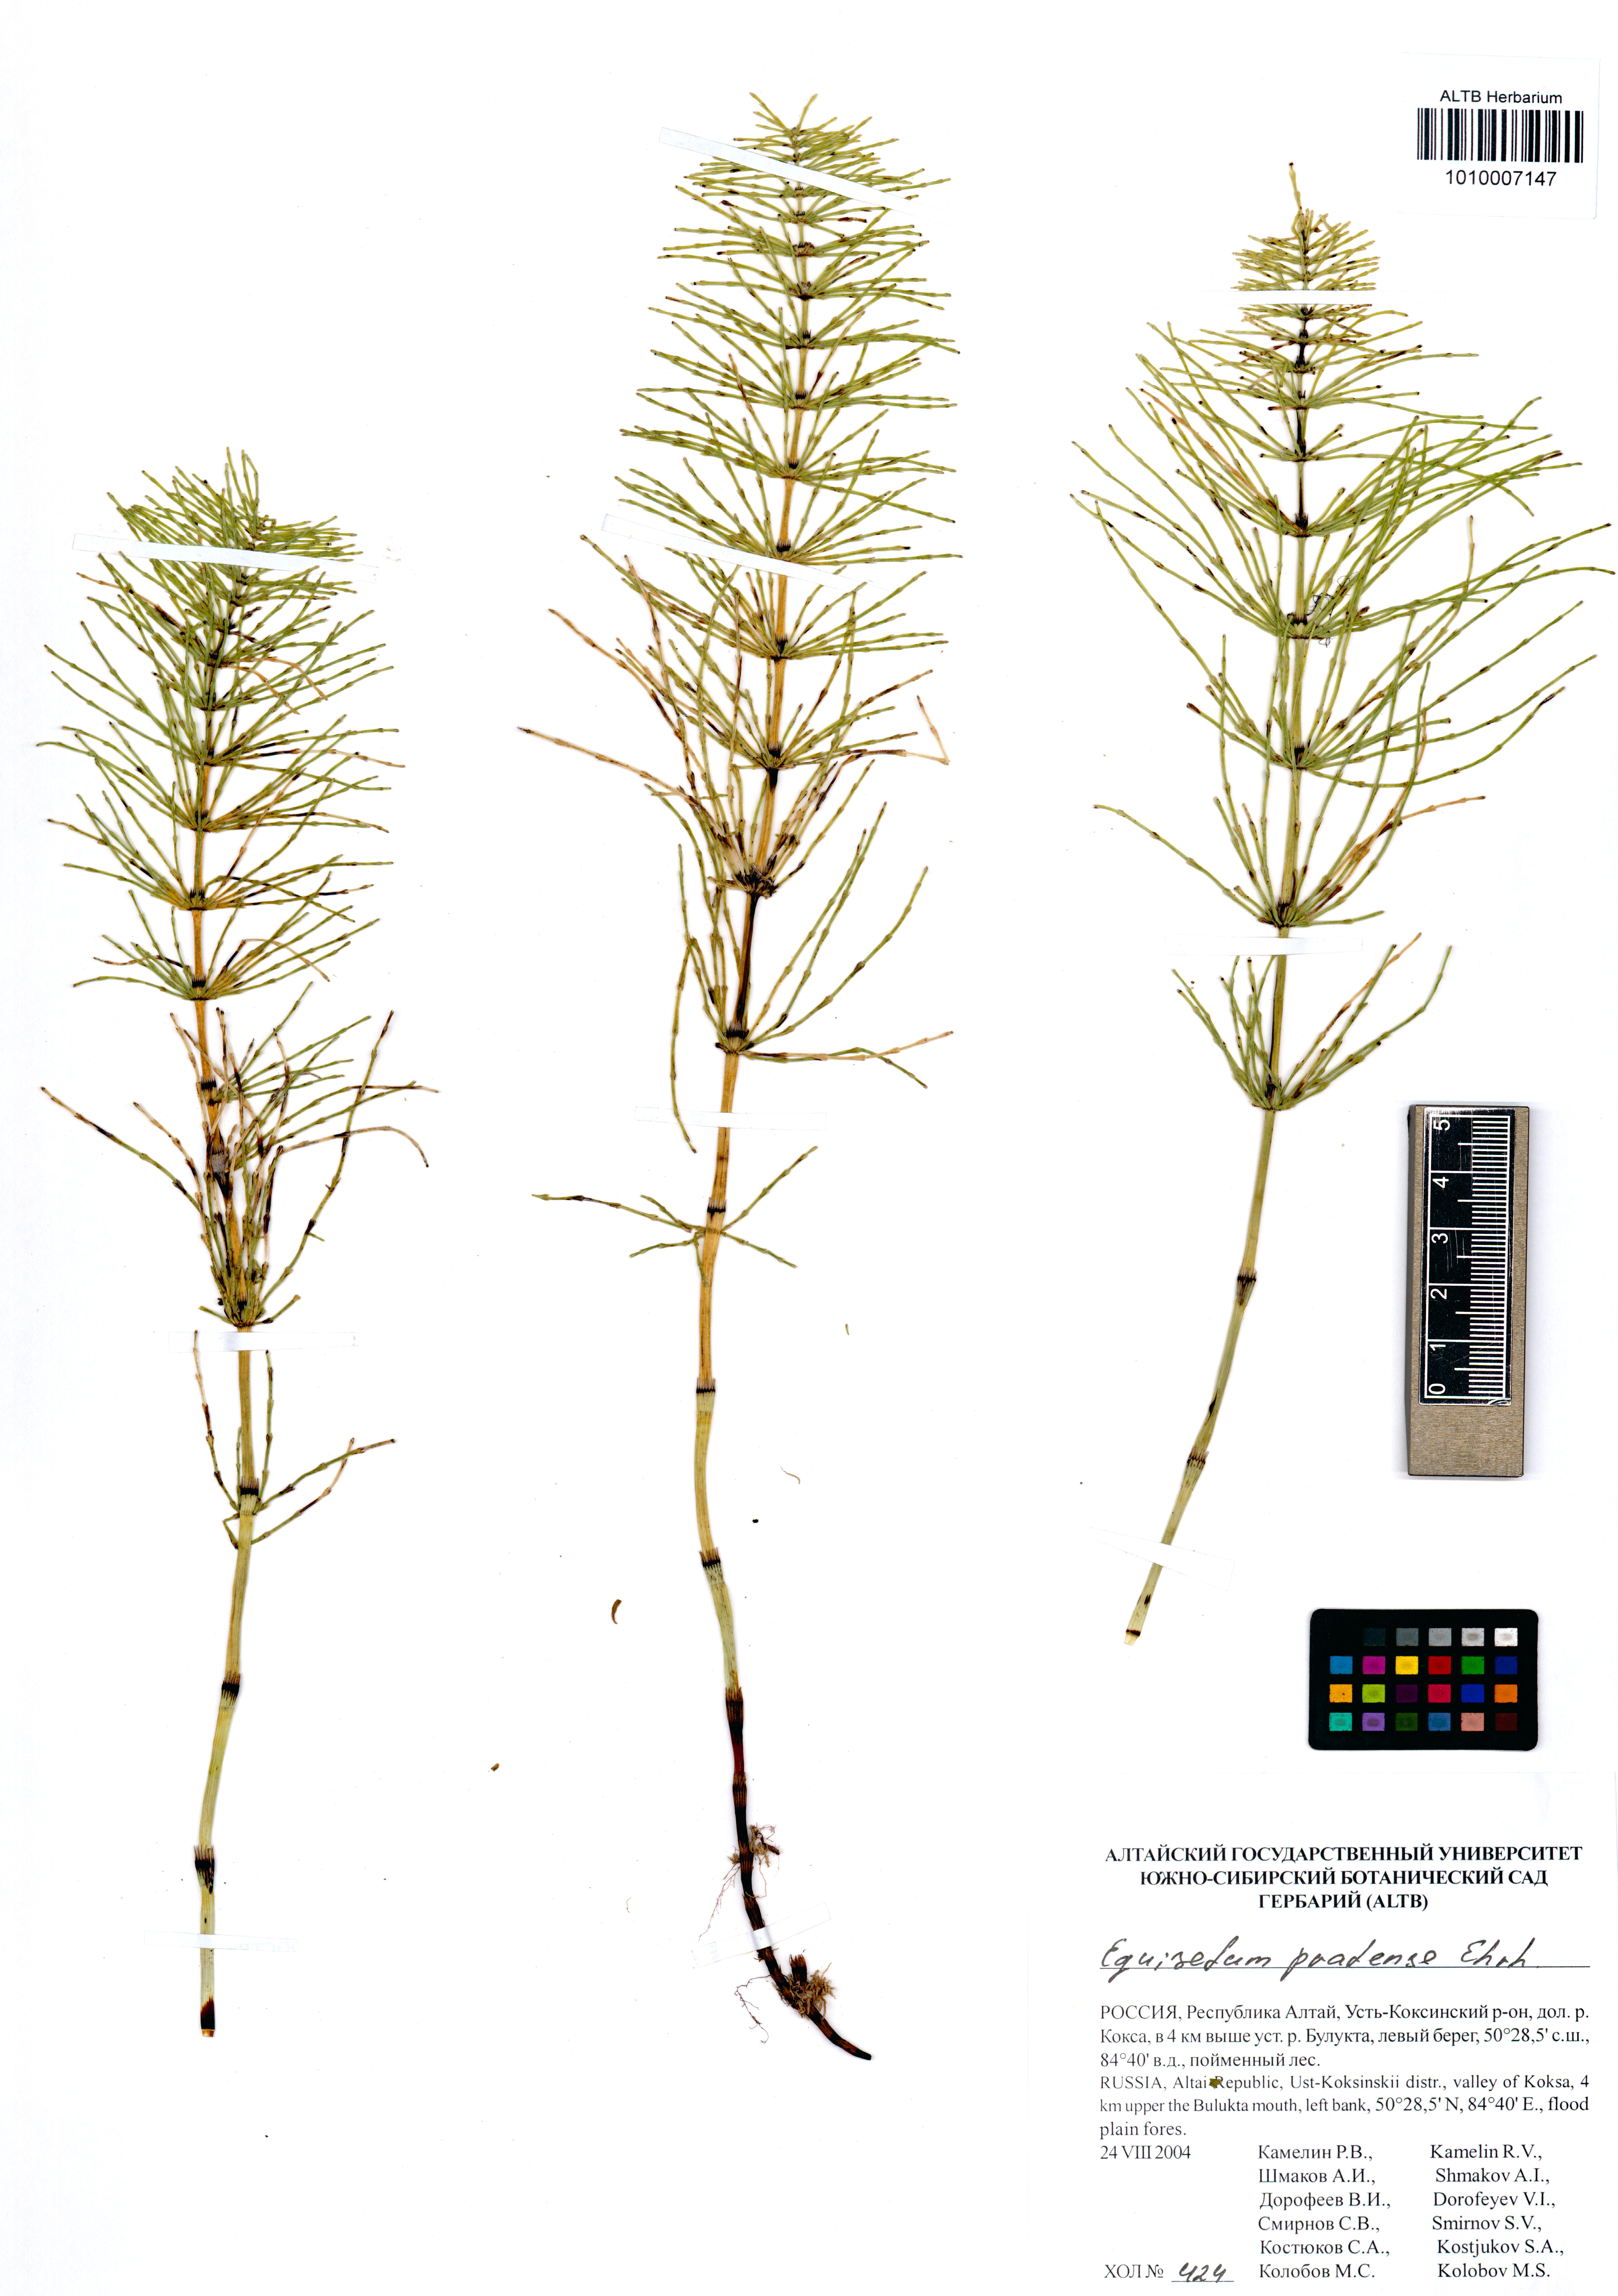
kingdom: Plantae
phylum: Tracheophyta
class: Polypodiopsida
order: Equisetales
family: Equisetaceae
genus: Equisetum
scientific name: Equisetum pratense
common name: Meadow horsetail
